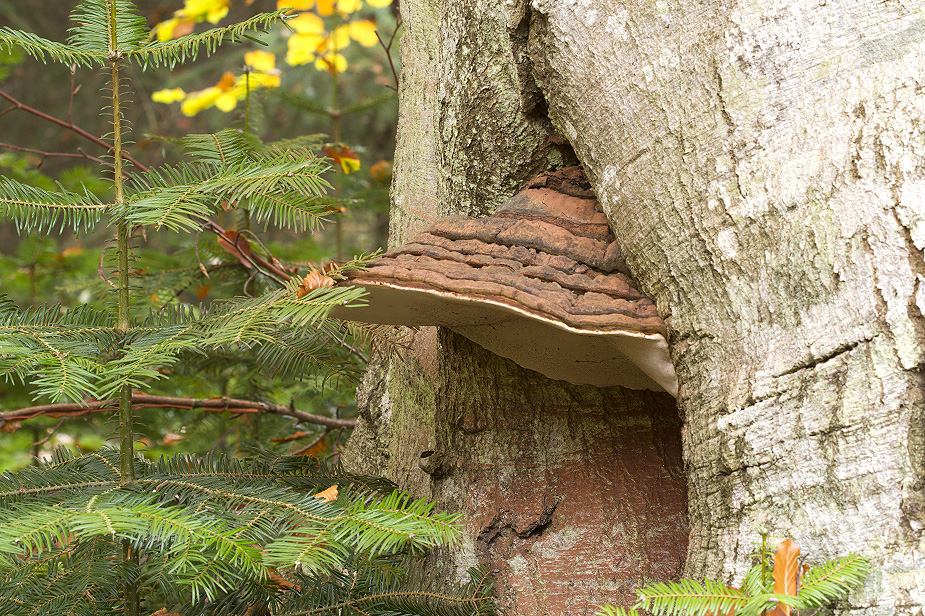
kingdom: Fungi
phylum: Basidiomycota
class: Agaricomycetes
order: Polyporales
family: Polyporaceae
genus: Ganoderma
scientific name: Ganoderma adspersum
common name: grov lakporesvamp
